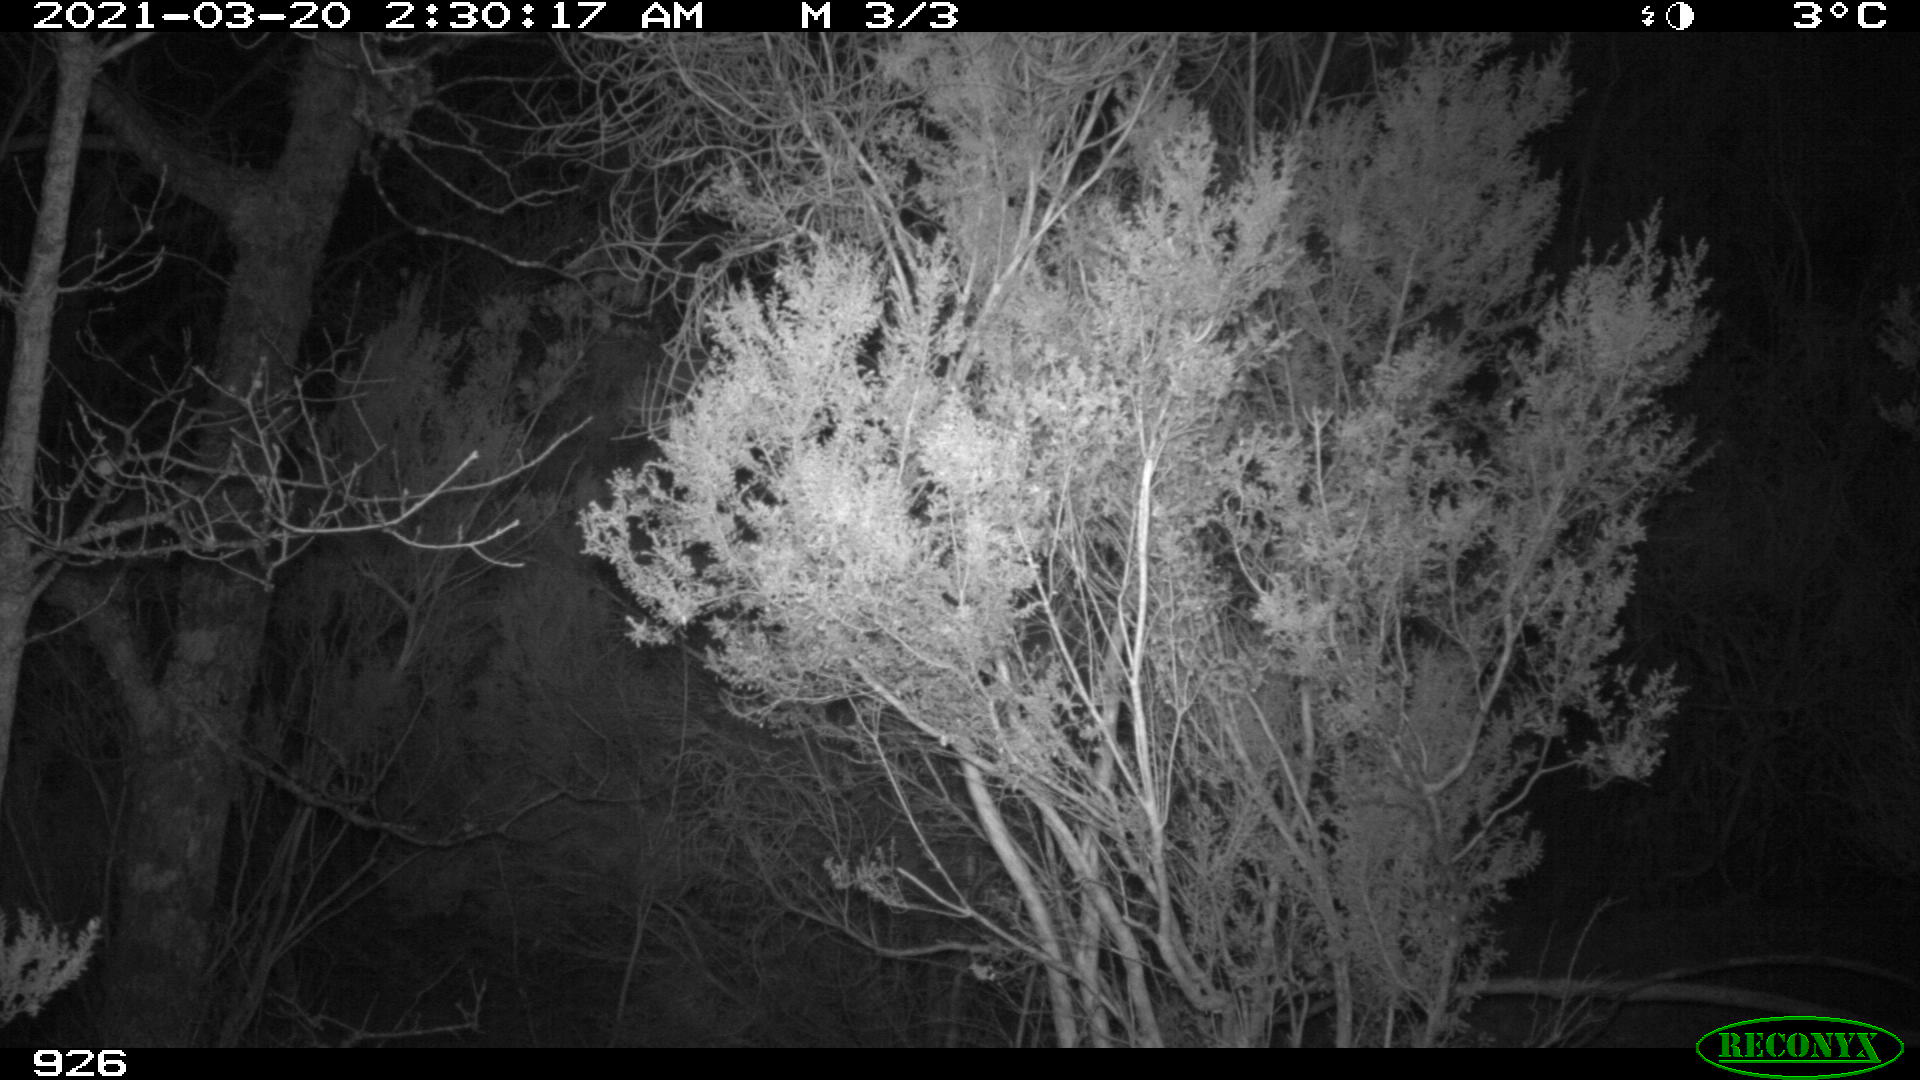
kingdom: Animalia
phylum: Chordata
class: Mammalia
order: Artiodactyla
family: Bovidae
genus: Bos
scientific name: Bos taurus
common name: Domesticated cattle
